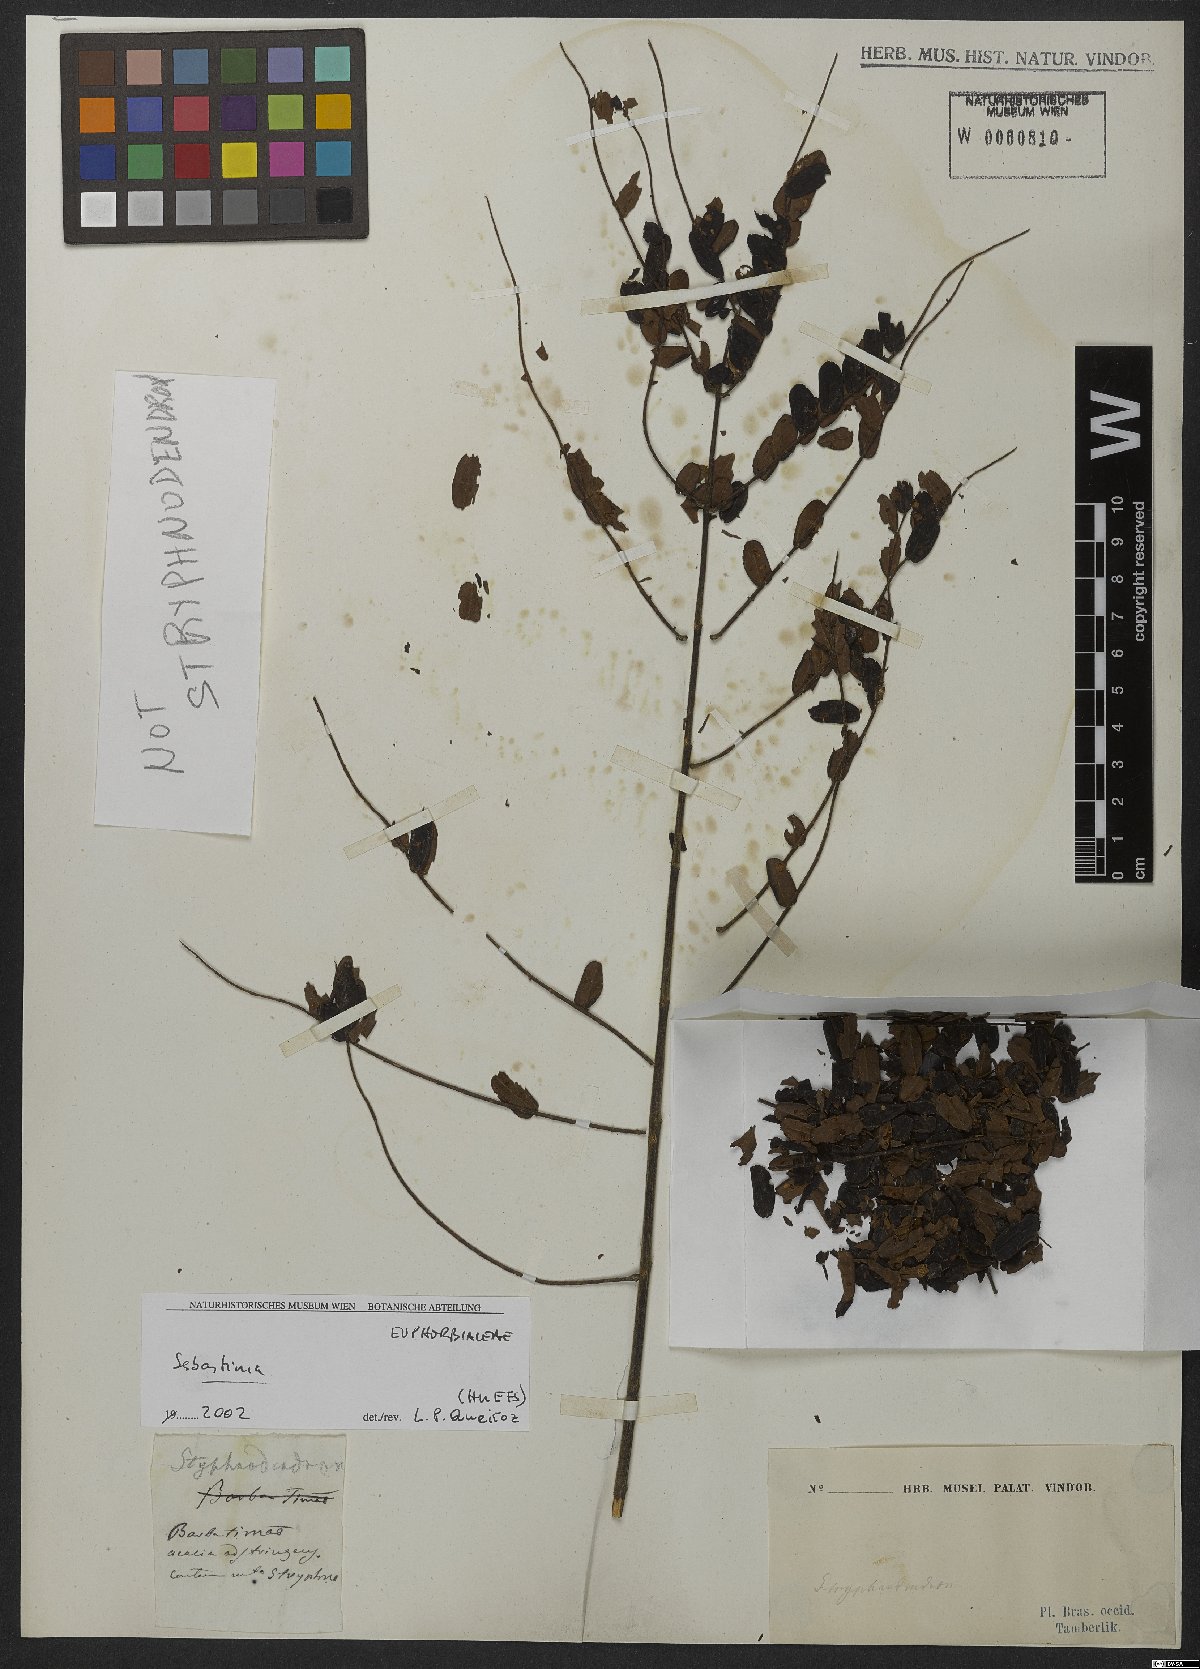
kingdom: Plantae
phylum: Tracheophyta
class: Magnoliopsida
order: Malpighiales
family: Euphorbiaceae
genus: Sebastiania
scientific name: Sebastiania
